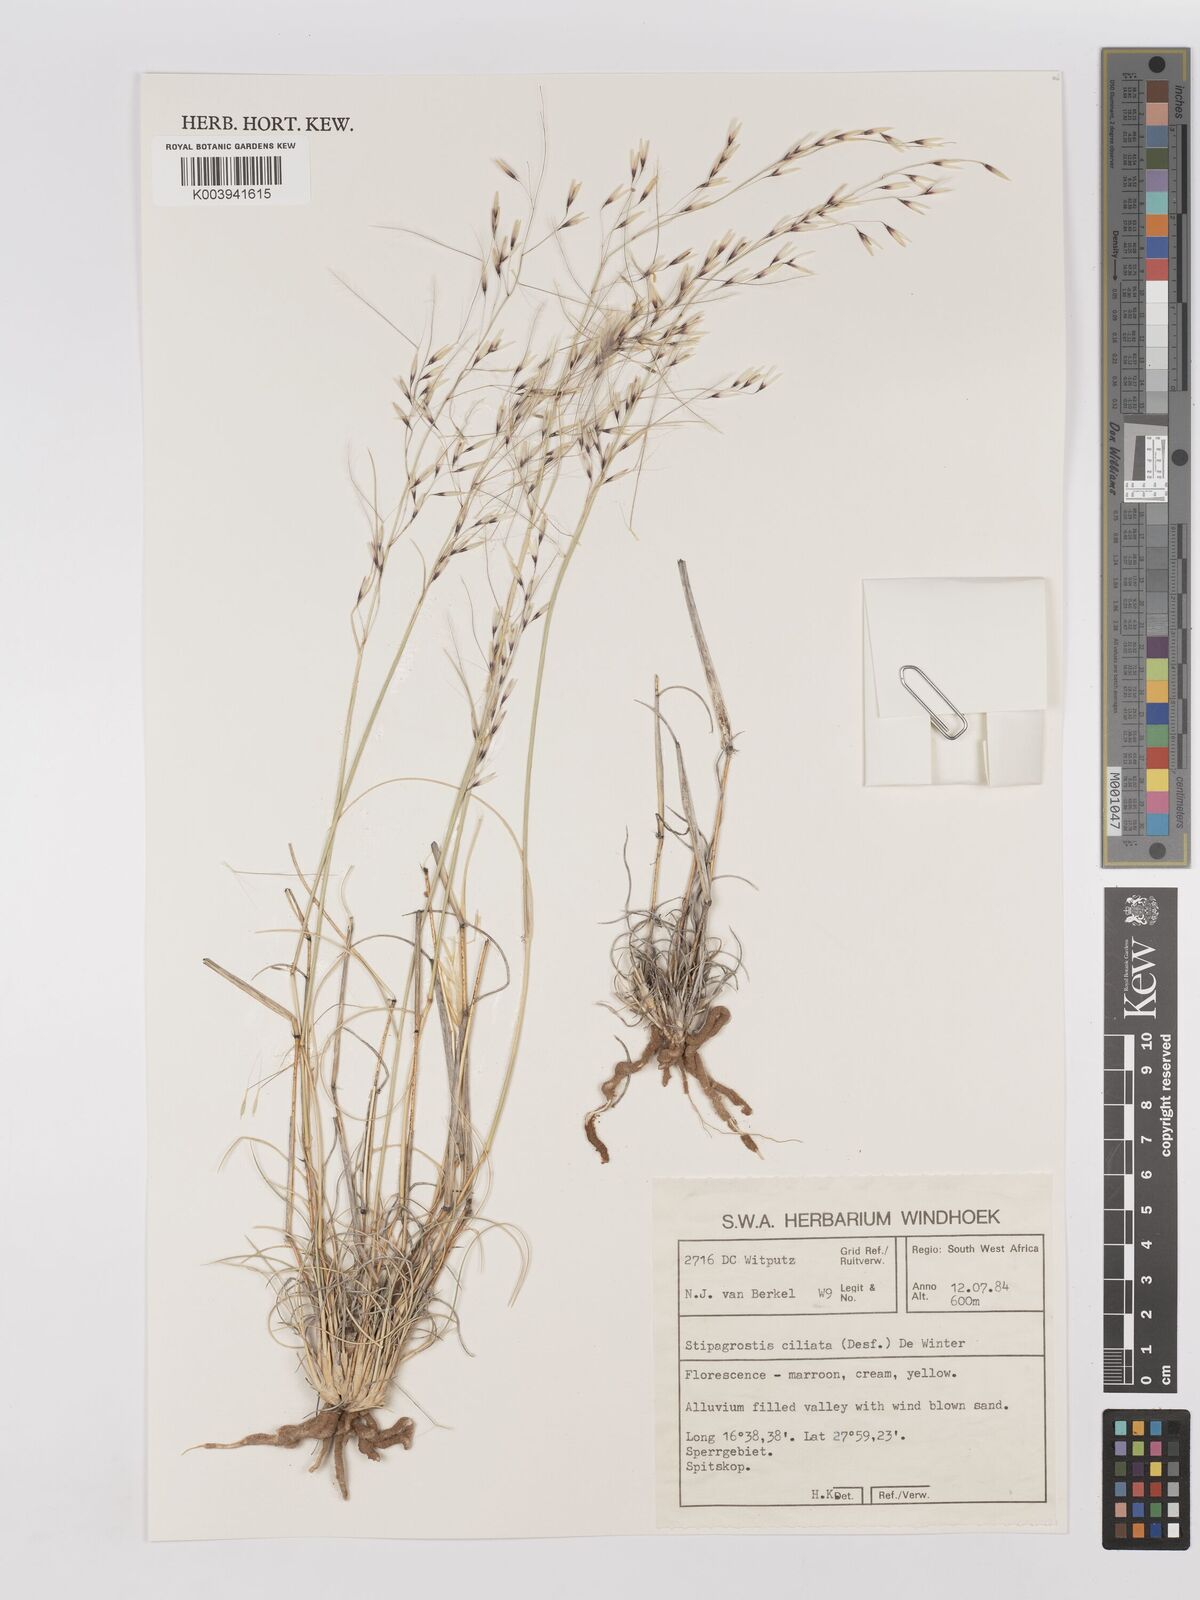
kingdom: Plantae
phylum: Tracheophyta
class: Liliopsida
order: Poales
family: Poaceae
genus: Stipagrostis
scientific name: Stipagrostis ciliata
